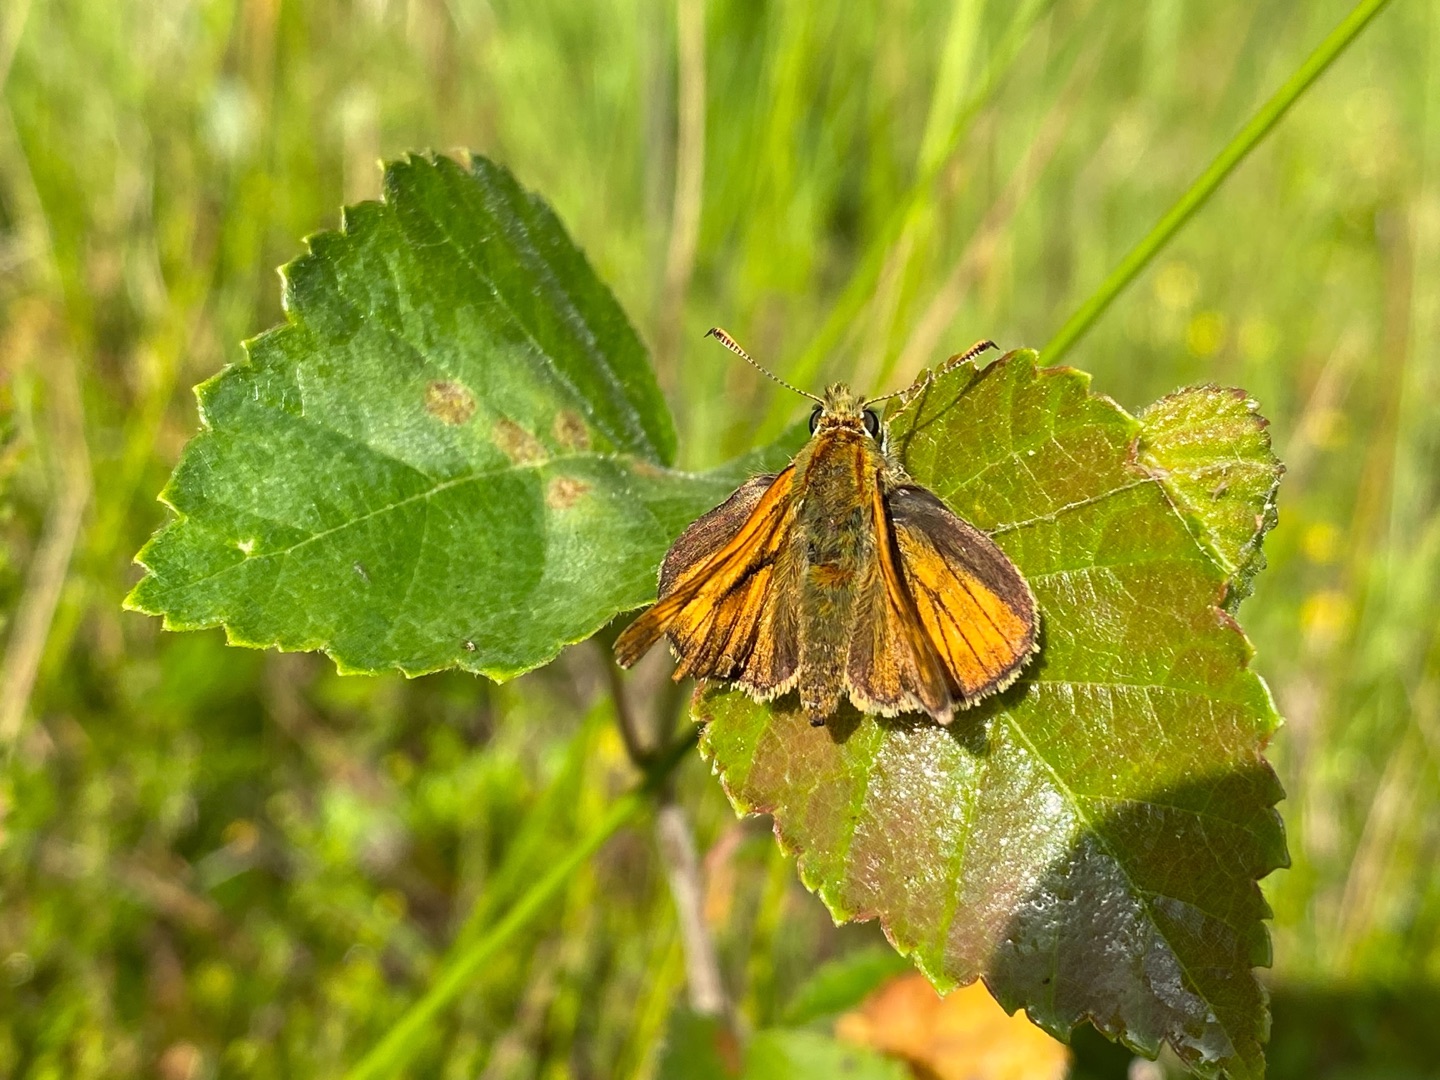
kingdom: Animalia
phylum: Arthropoda
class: Insecta
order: Lepidoptera
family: Hesperiidae
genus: Ochlodes
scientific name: Ochlodes venata
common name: Stor bredpande
